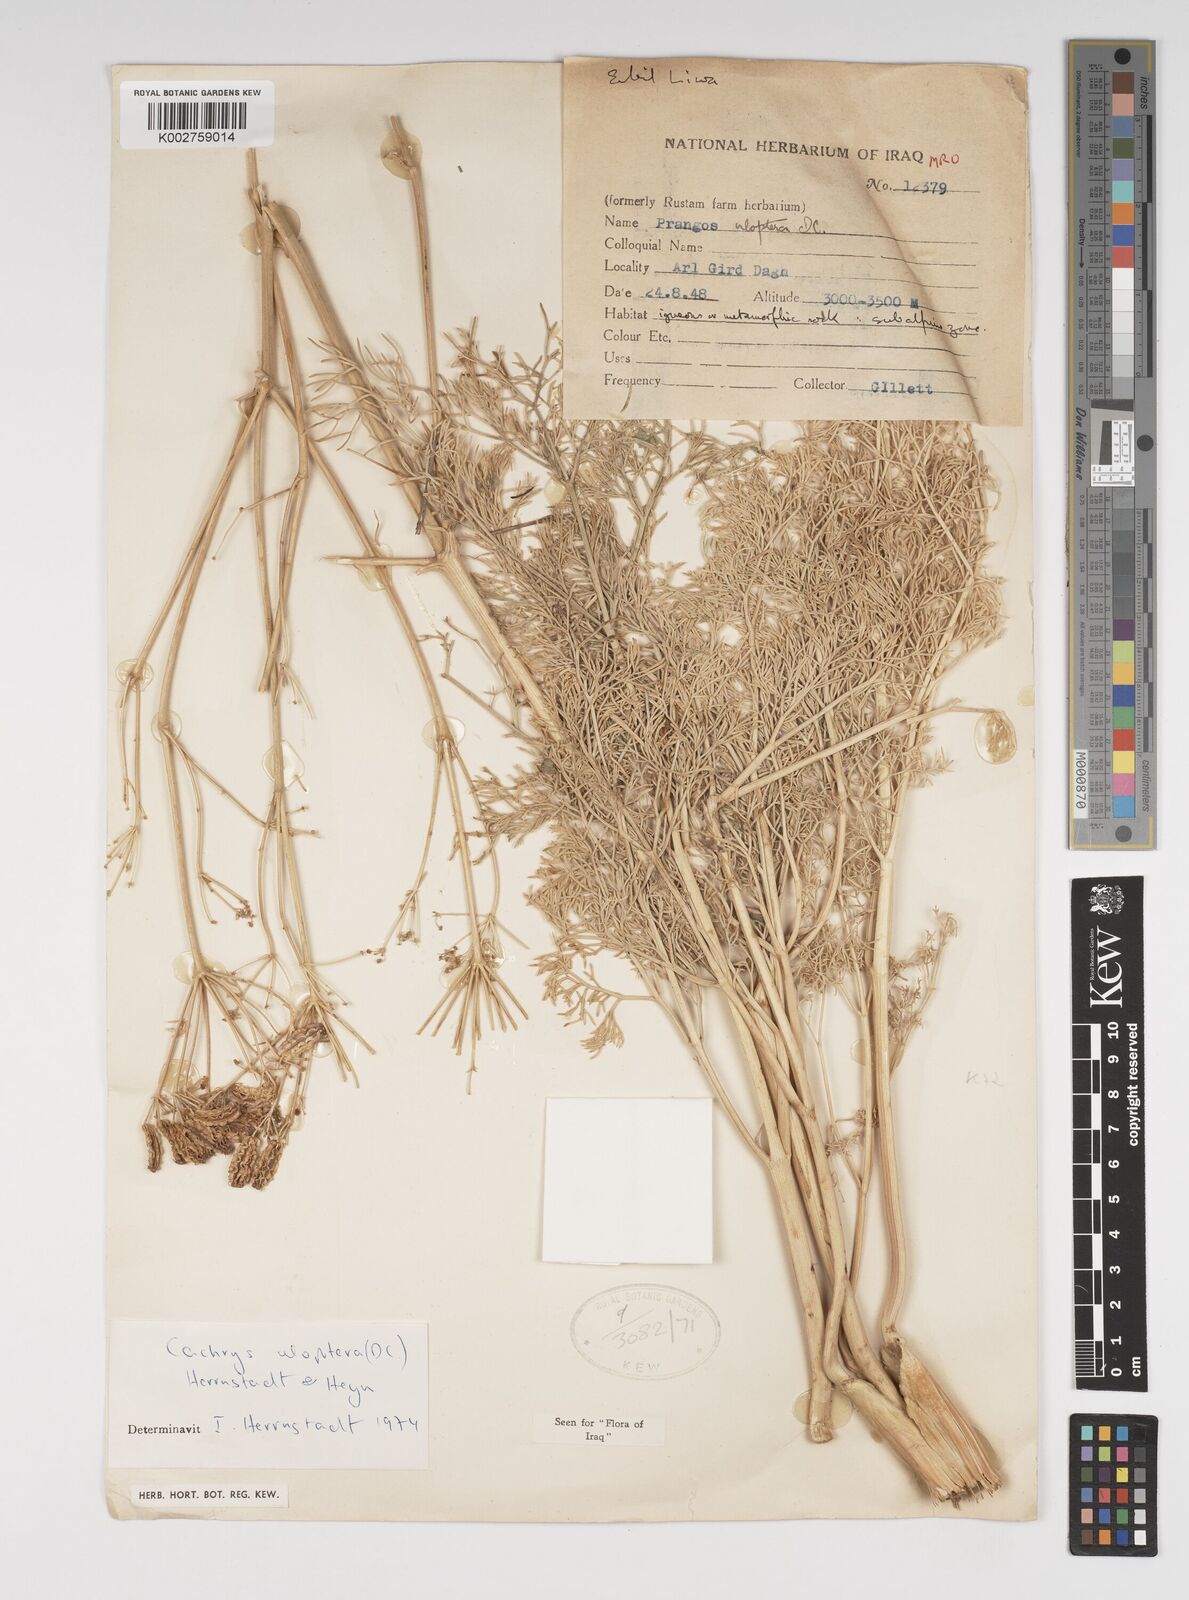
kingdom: Plantae
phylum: Tracheophyta
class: Magnoliopsida
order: Apiales
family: Apiaceae
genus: Prangos
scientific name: Prangos uloptera
